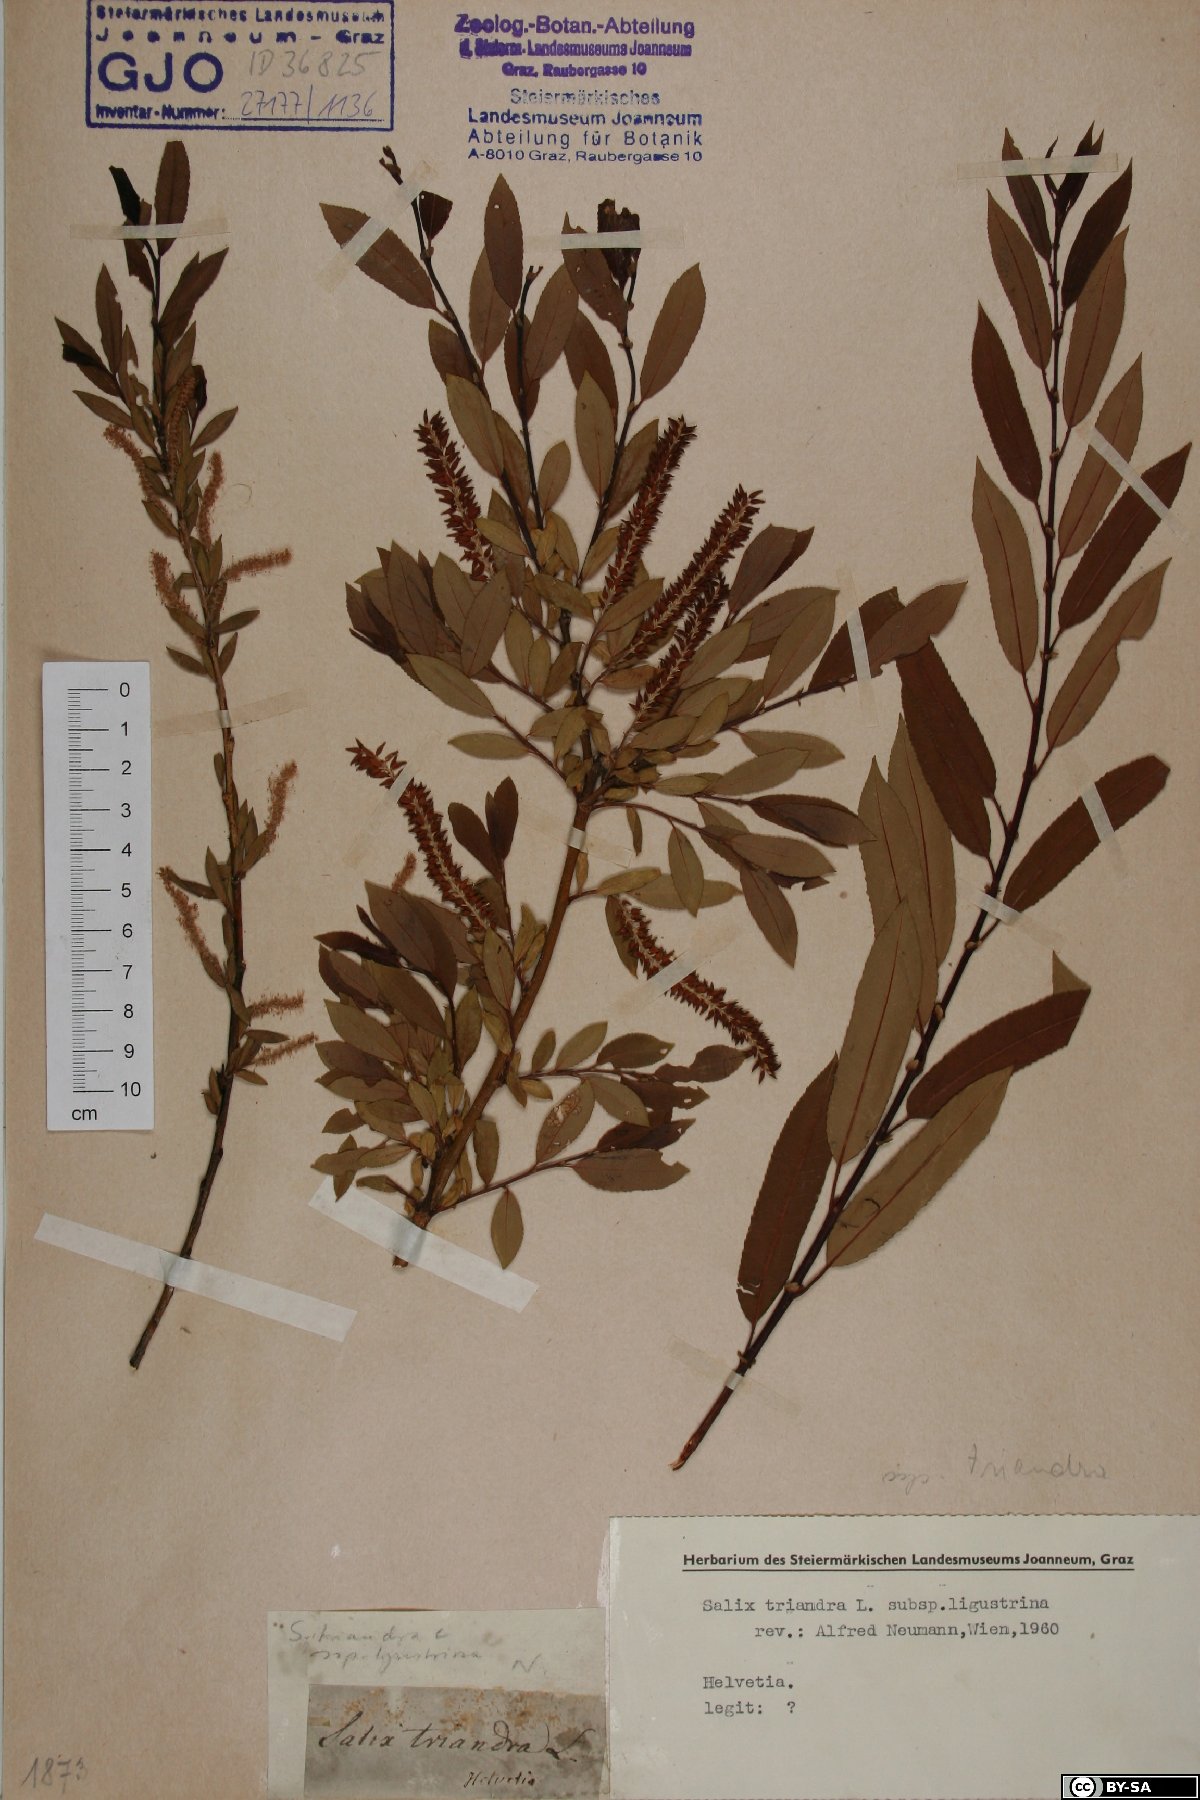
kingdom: Plantae
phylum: Tracheophyta
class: Magnoliopsida
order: Malpighiales
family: Salicaceae
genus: Salix
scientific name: Salix triandra
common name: Almond willow
